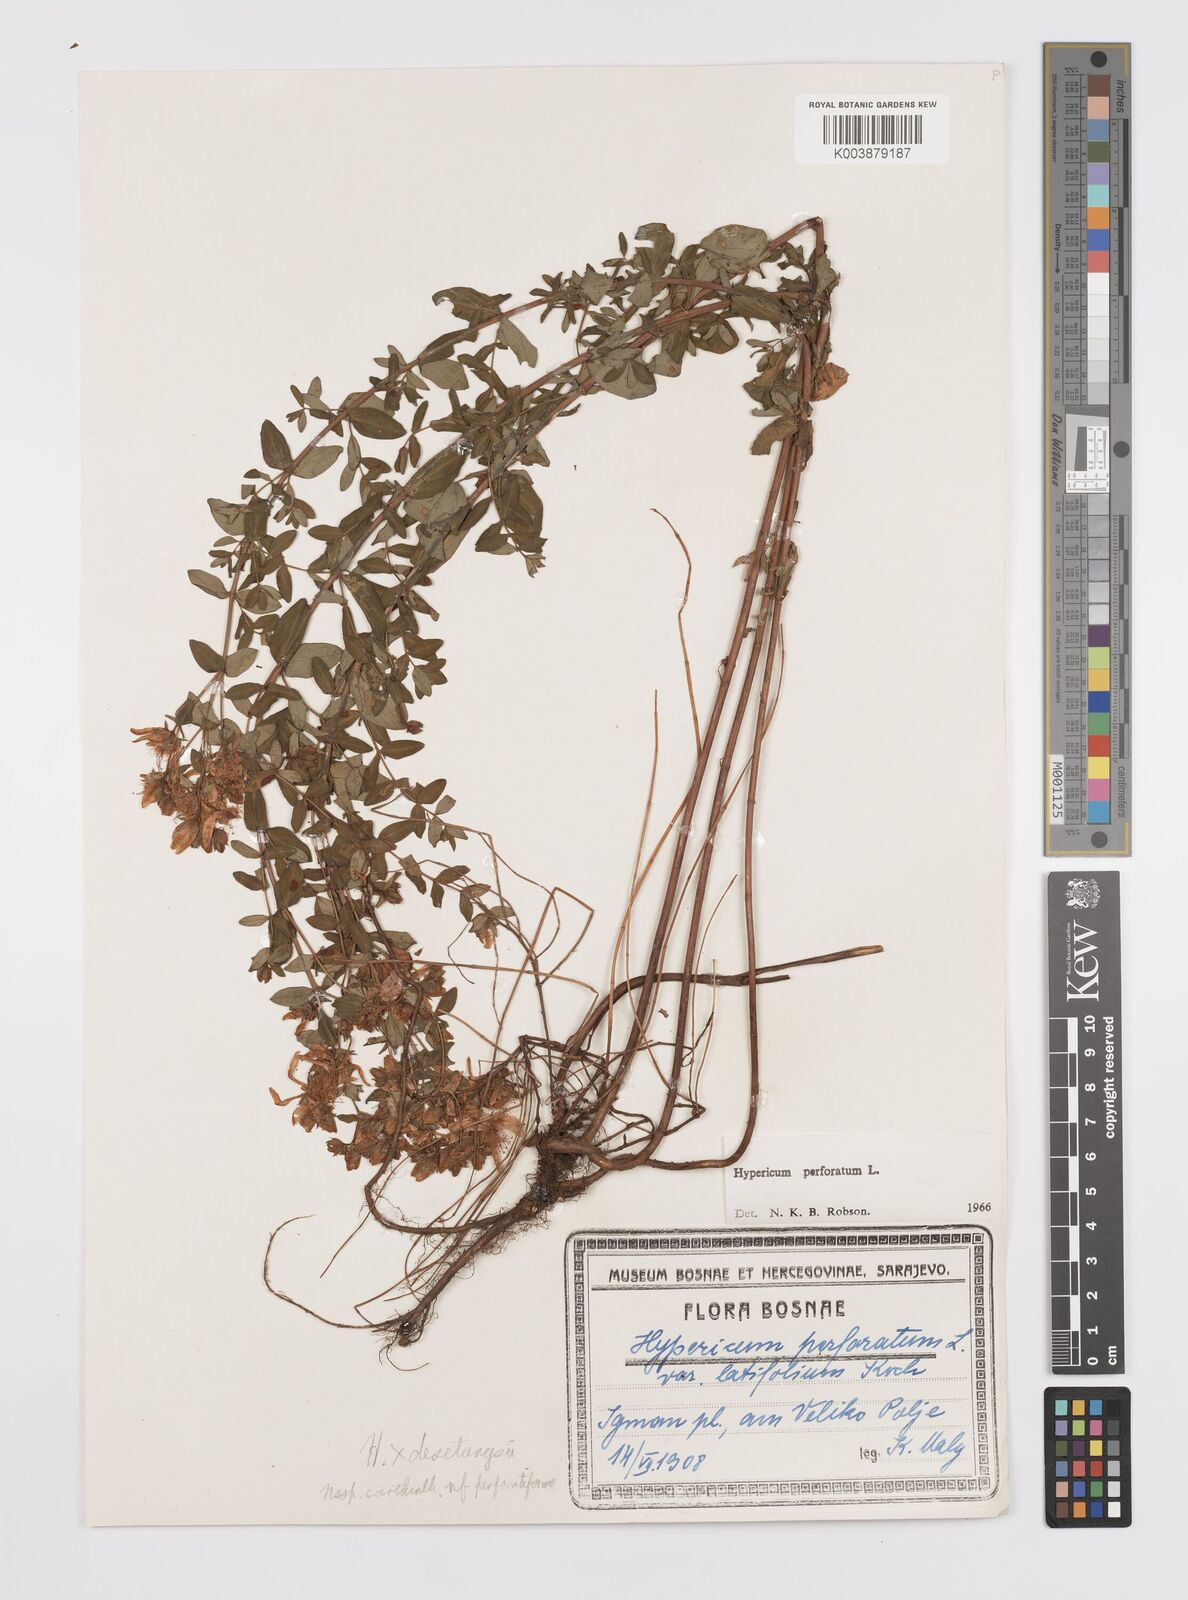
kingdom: Plantae
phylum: Tracheophyta
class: Magnoliopsida
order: Malpighiales
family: Hypericaceae
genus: Hypericum
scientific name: Hypericum carinthiacum
